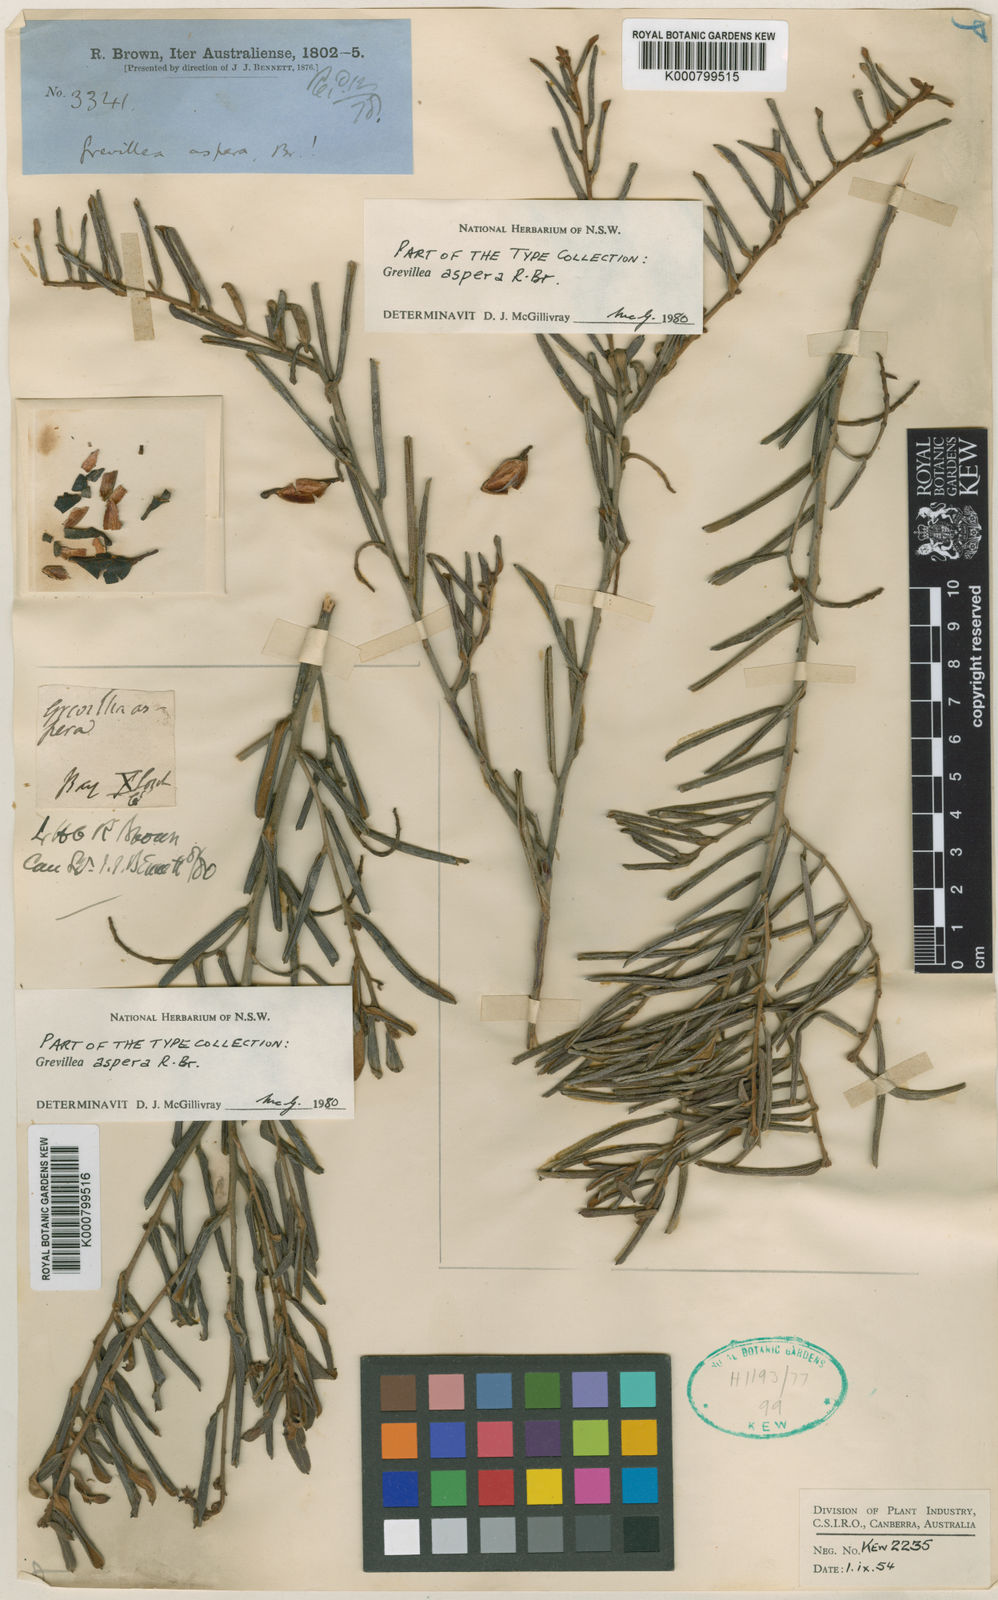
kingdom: Plantae
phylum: Tracheophyta
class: Magnoliopsida
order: Proteales
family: Proteaceae
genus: Grevillea
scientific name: Grevillea aspera
